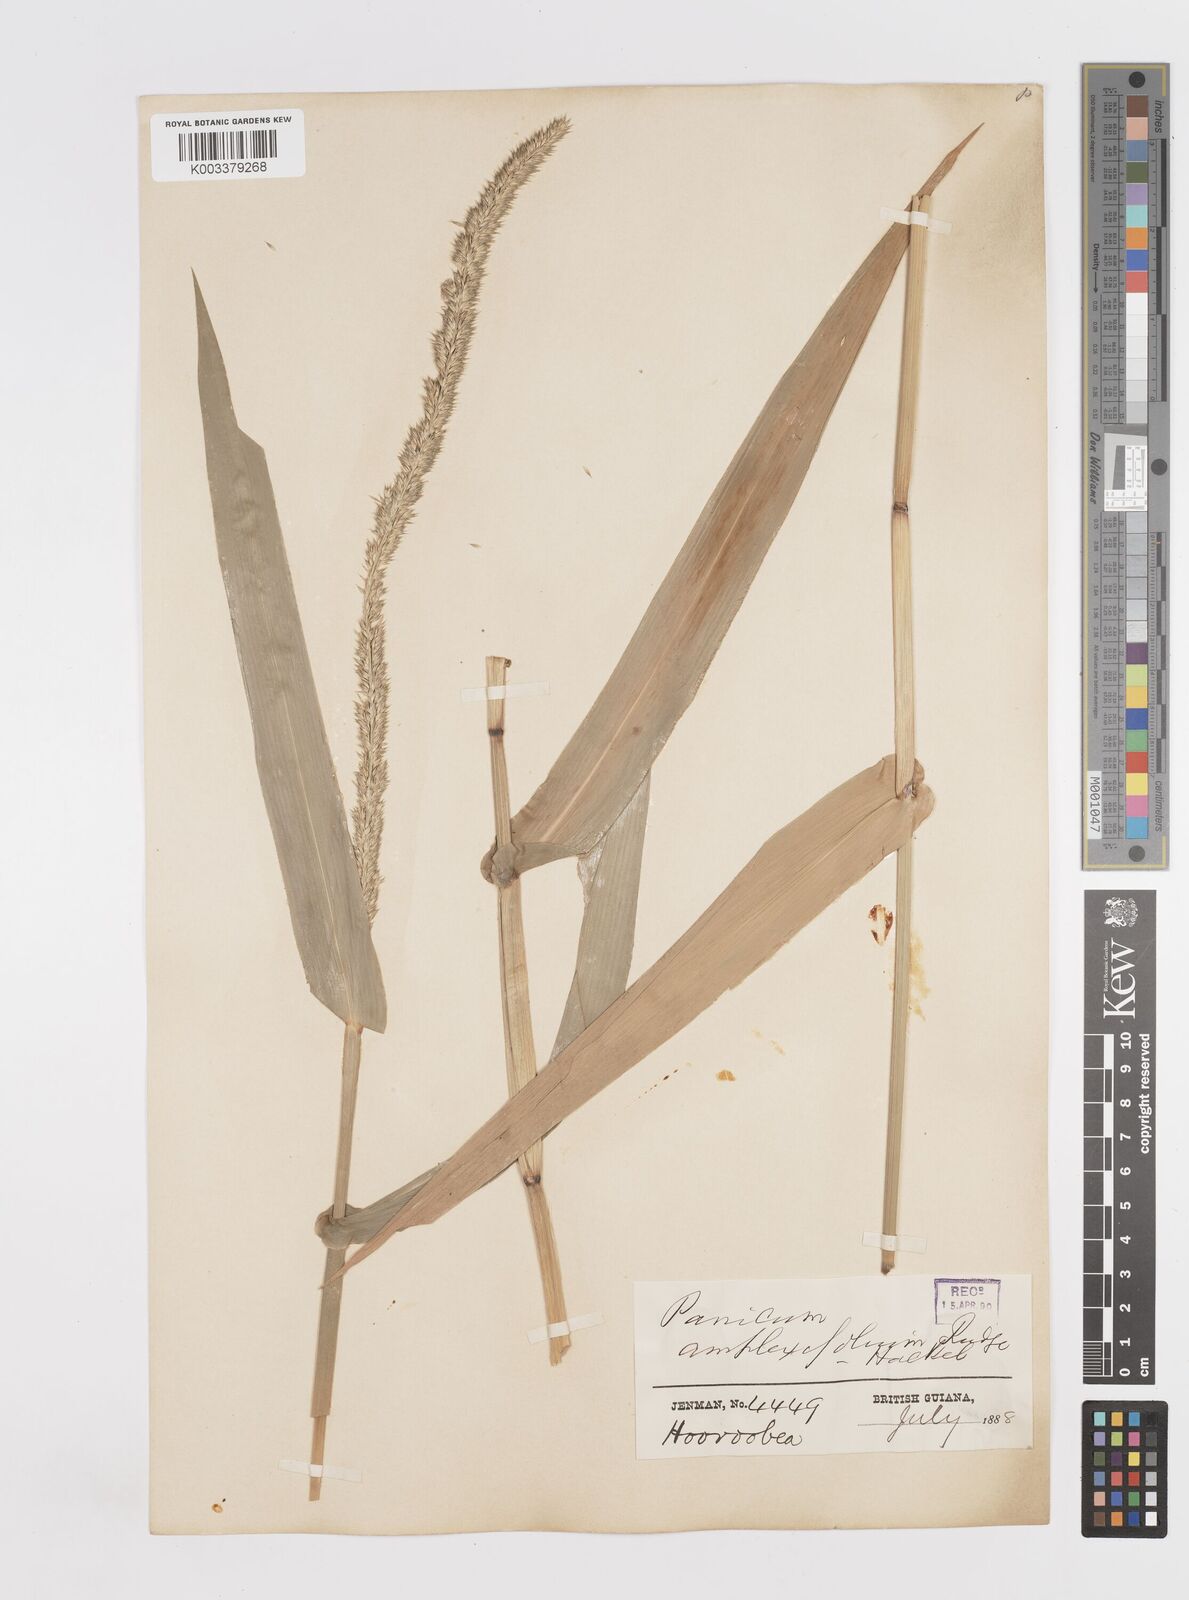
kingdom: Plantae
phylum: Tracheophyta
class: Liliopsida
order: Poales
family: Poaceae
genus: Hymenachne
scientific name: Hymenachne amplexicaulis
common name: Olive hymenachne
